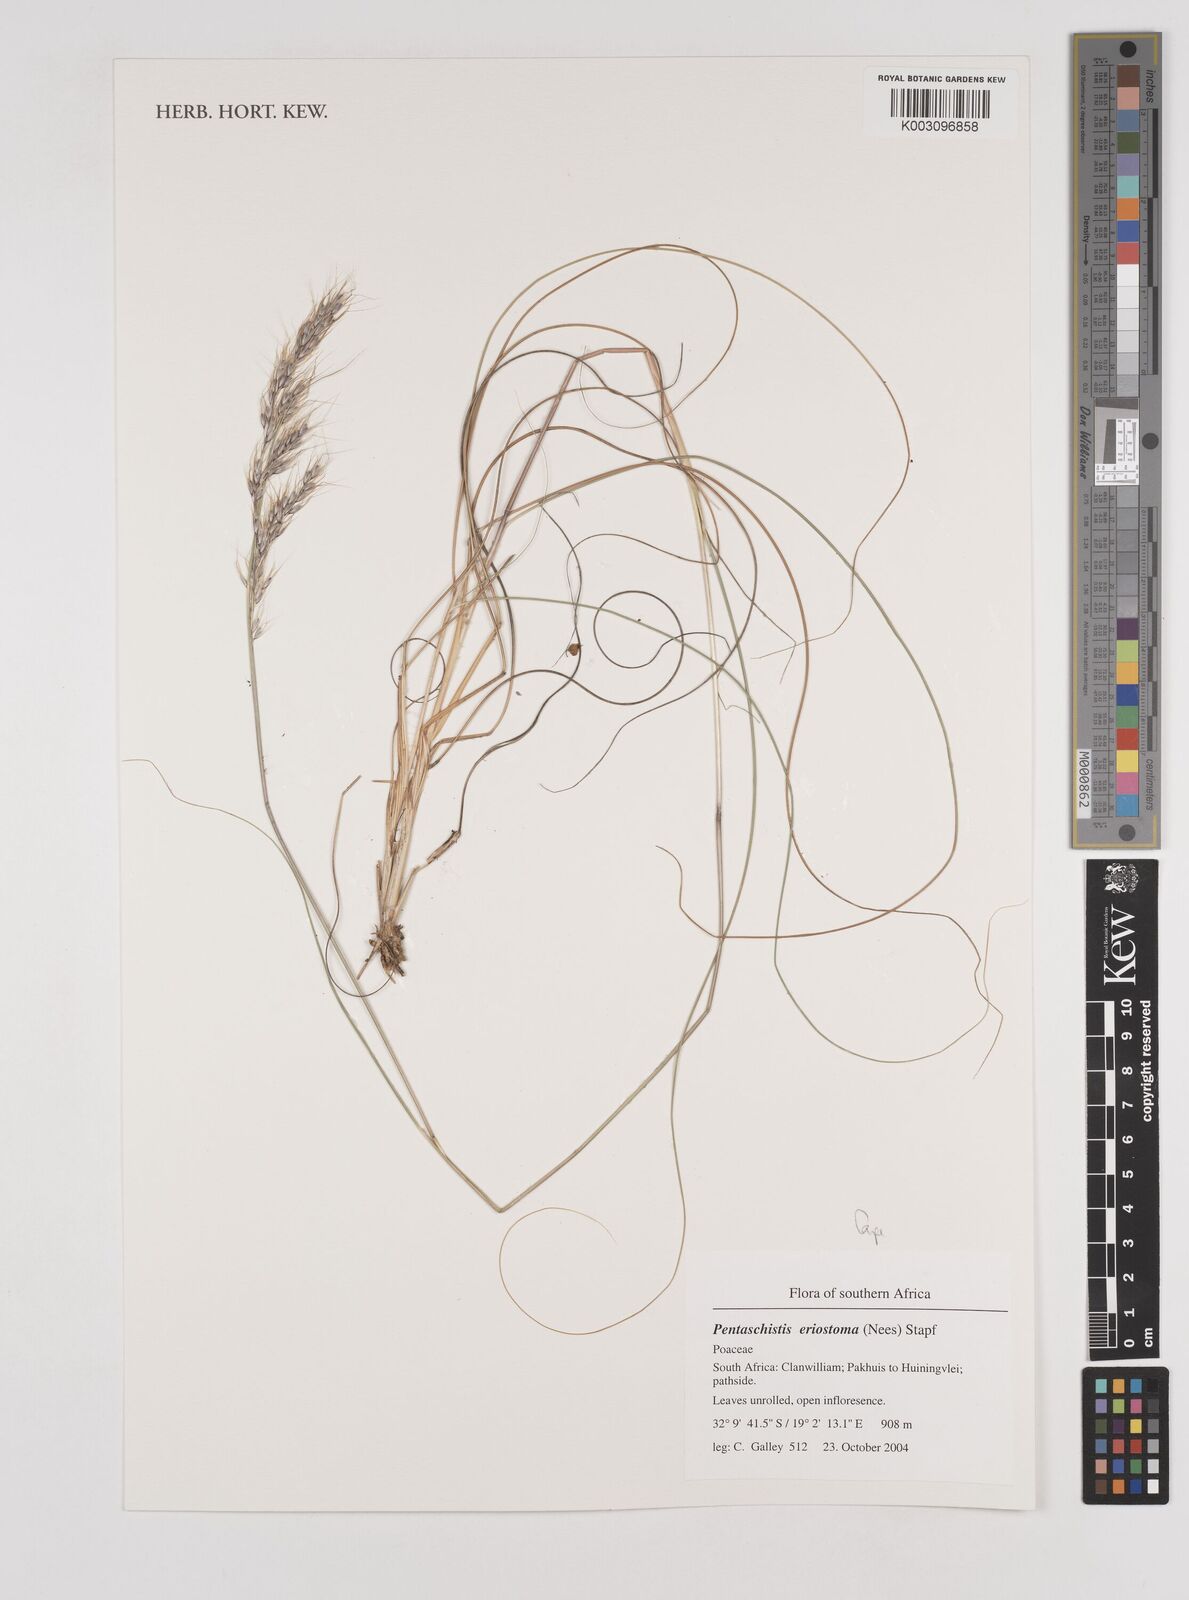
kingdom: Plantae
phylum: Tracheophyta
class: Liliopsida
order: Poales
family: Poaceae
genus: Pentameris
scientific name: Pentameris eriostoma
